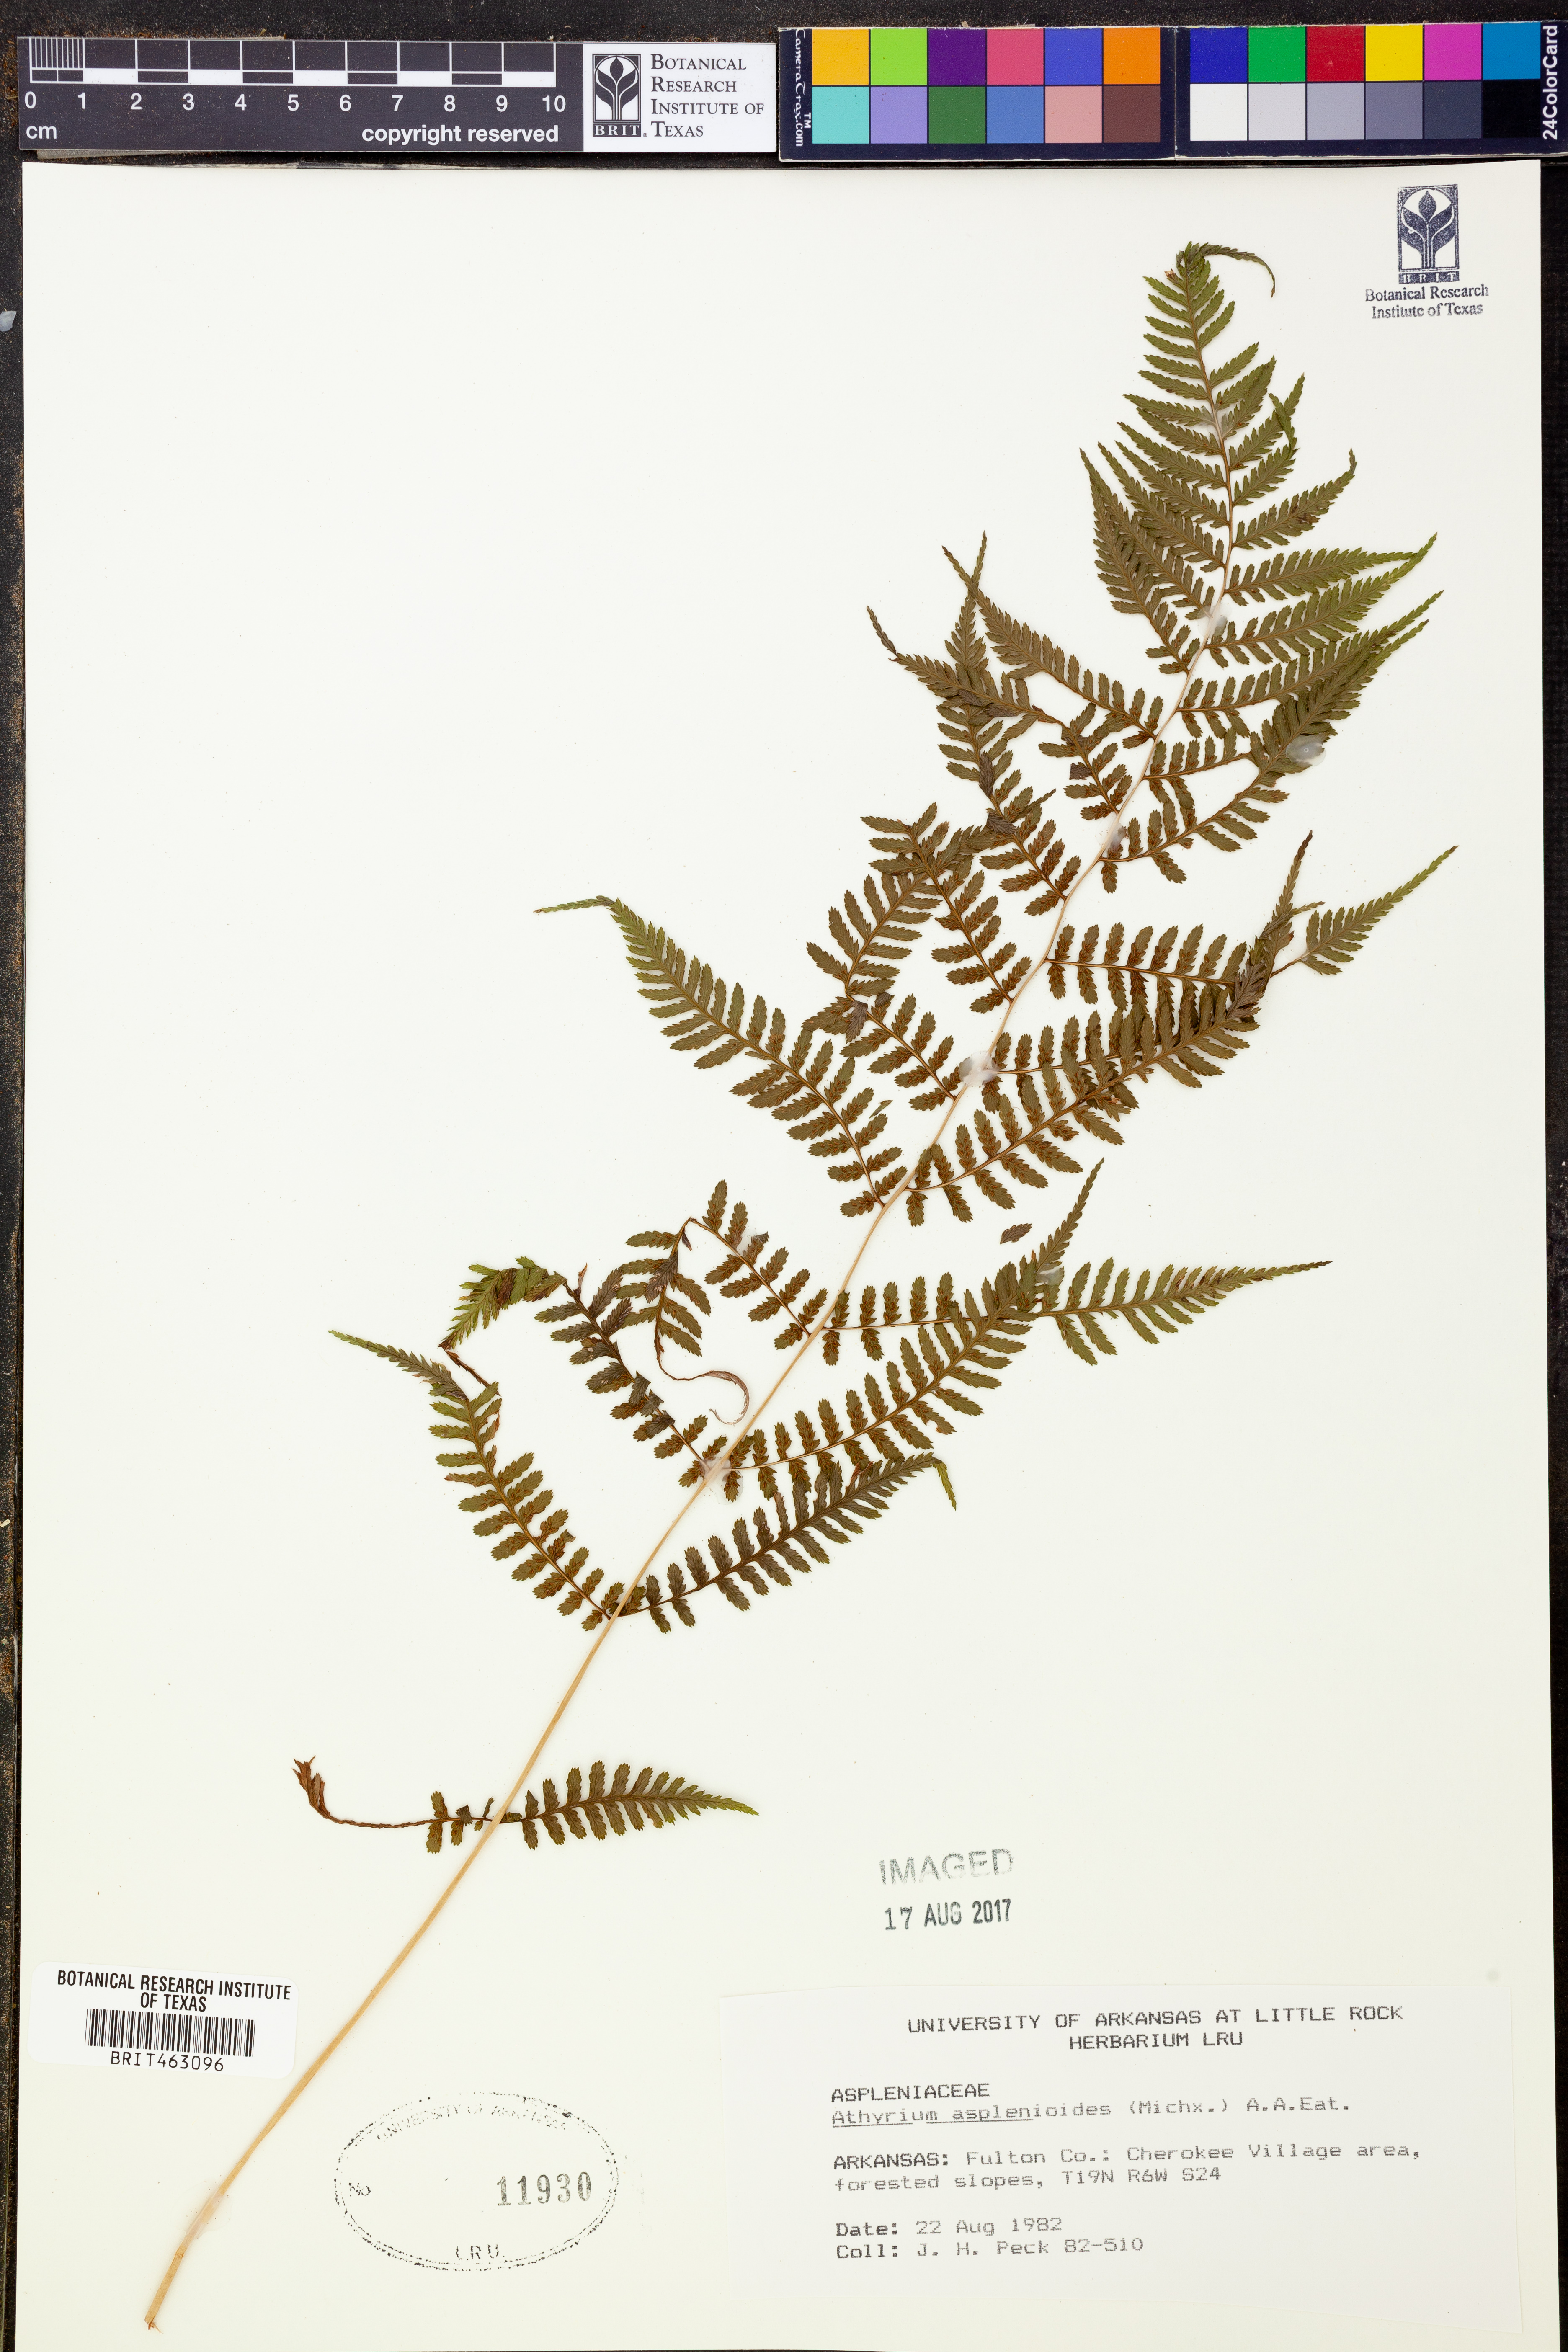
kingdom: Plantae
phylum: Tracheophyta
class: Polypodiopsida
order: Polypodiales
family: Athyriaceae
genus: Athyrium
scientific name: Athyrium asplenioides
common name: Southern lady fern
